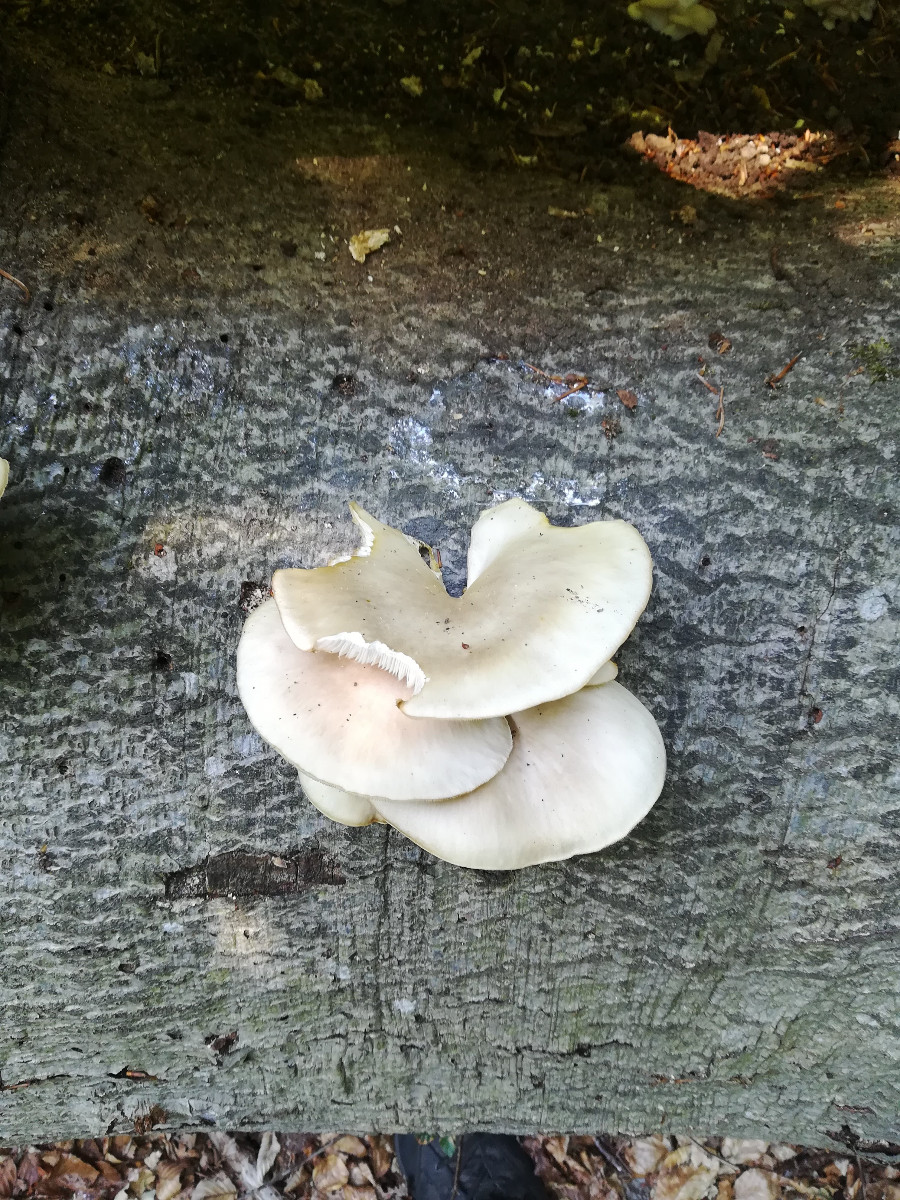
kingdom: Fungi
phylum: Basidiomycota
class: Agaricomycetes
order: Agaricales
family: Pleurotaceae
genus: Pleurotus
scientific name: Pleurotus pulmonarius
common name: sommer-østershat
